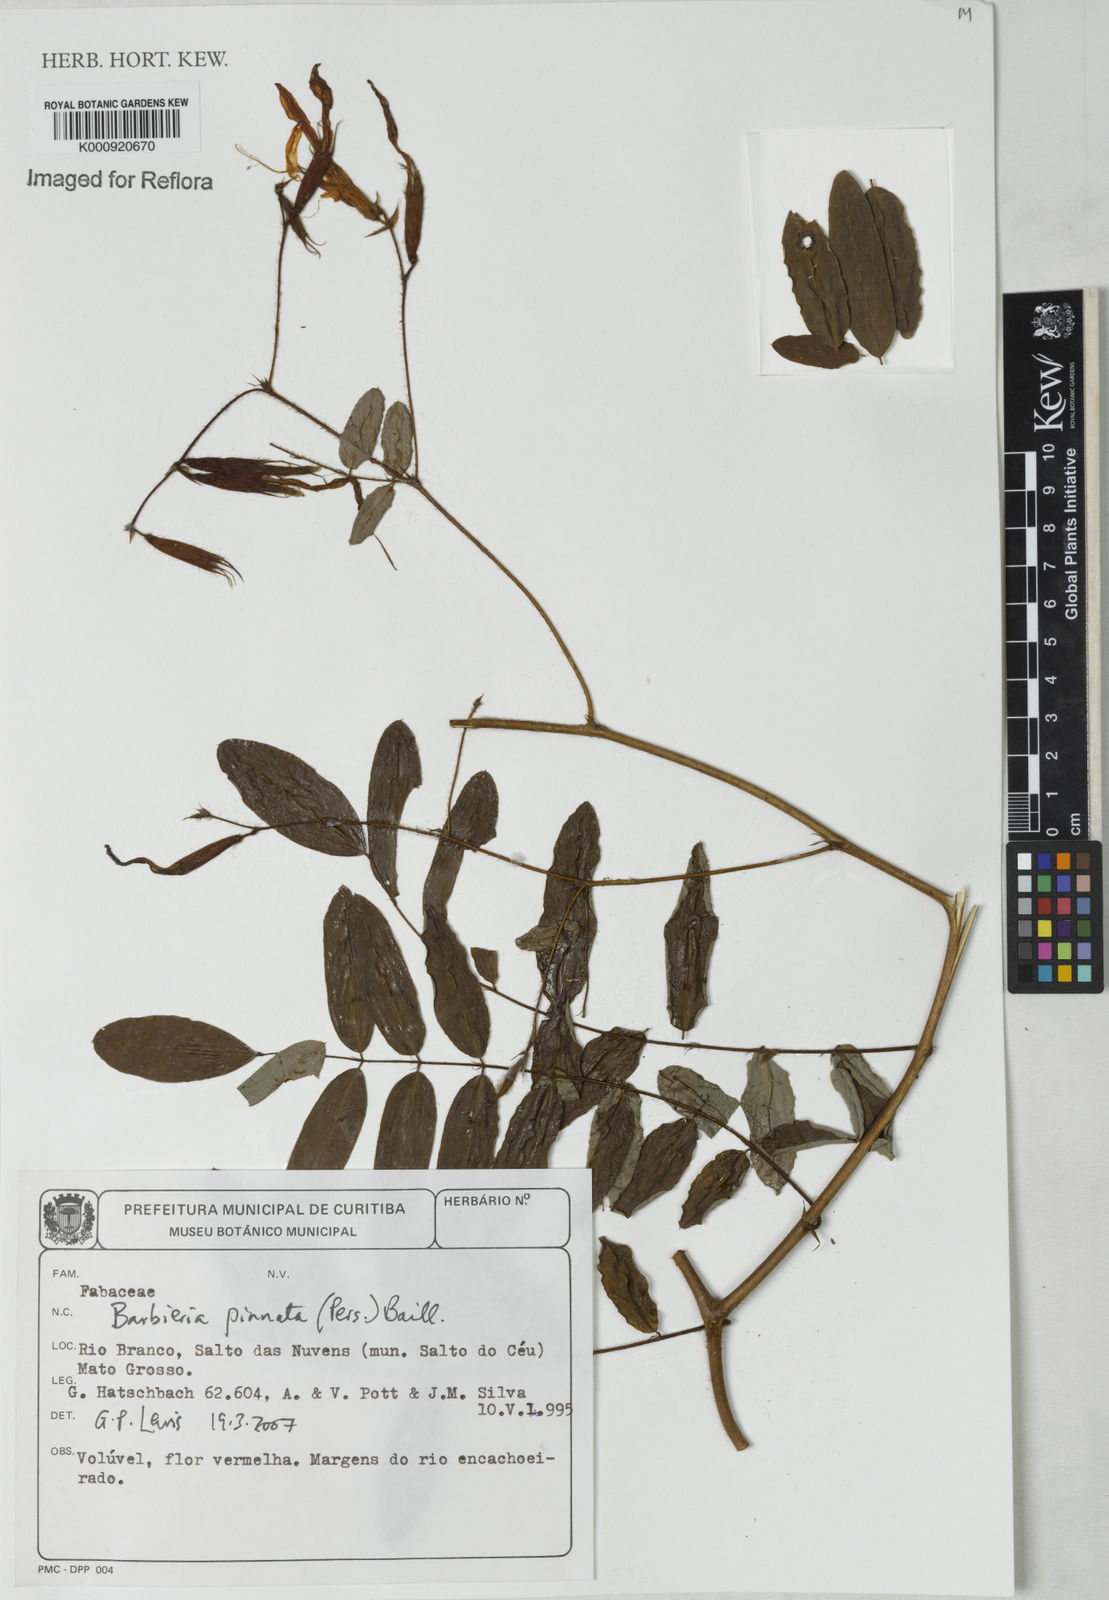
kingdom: Plantae
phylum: Tracheophyta
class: Magnoliopsida
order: Fabales
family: Fabaceae
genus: Barbieria
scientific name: Barbieria pinnata
